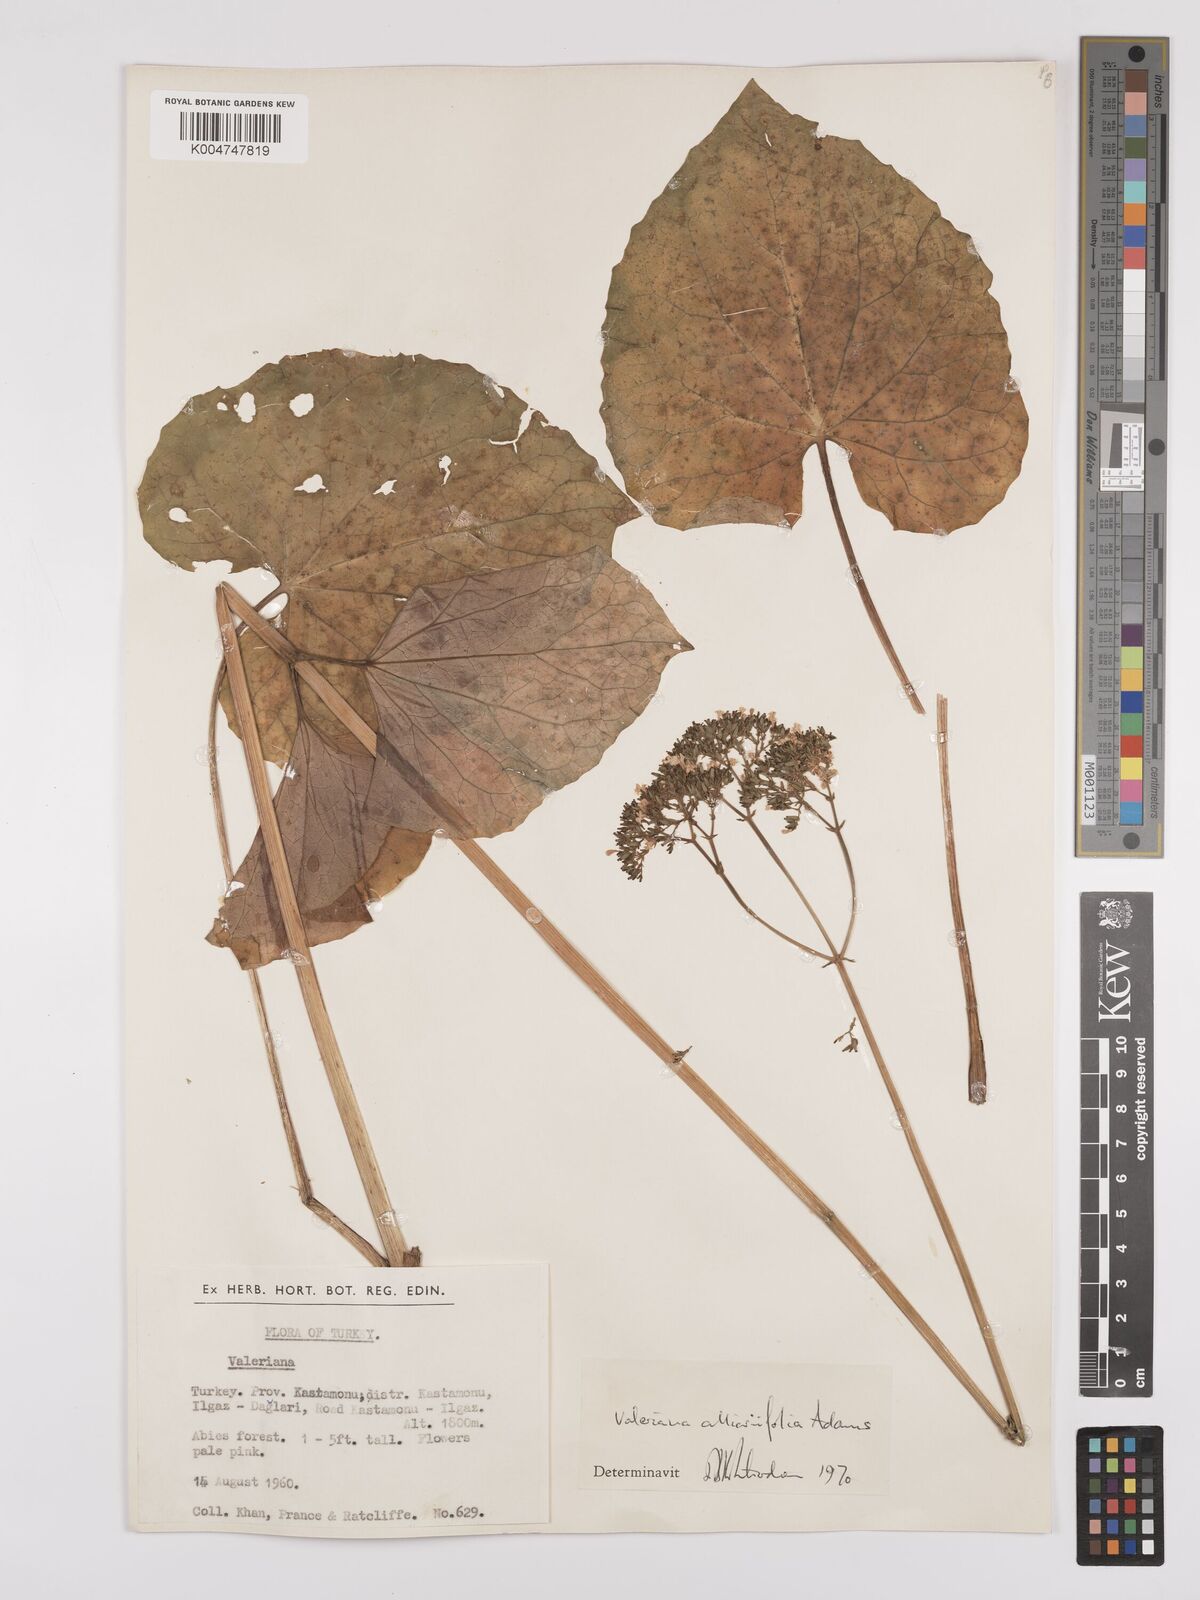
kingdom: Plantae
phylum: Tracheophyta
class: Magnoliopsida
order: Dipsacales
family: Caprifoliaceae
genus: Valeriana
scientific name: Valeriana
